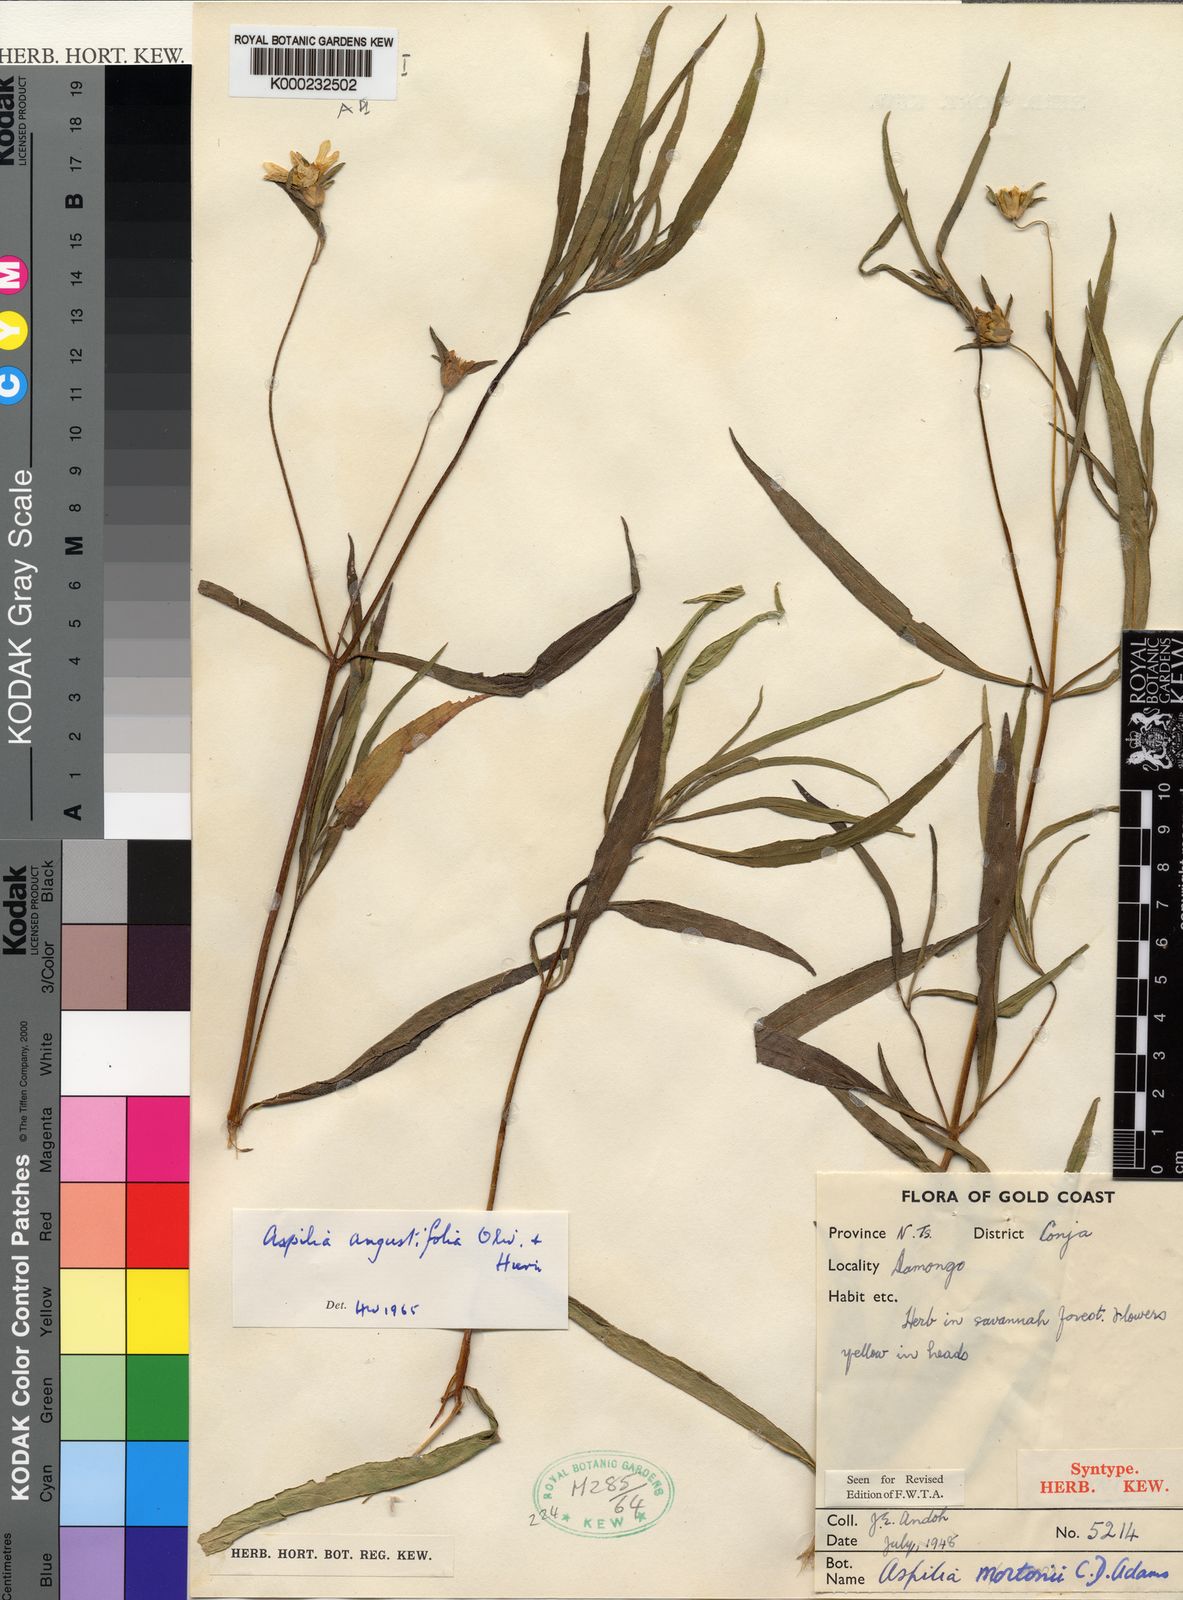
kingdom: Plantae
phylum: Tracheophyta
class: Magnoliopsida
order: Asterales
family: Asteraceae
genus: Aspilia
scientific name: Aspilia angustifolia
